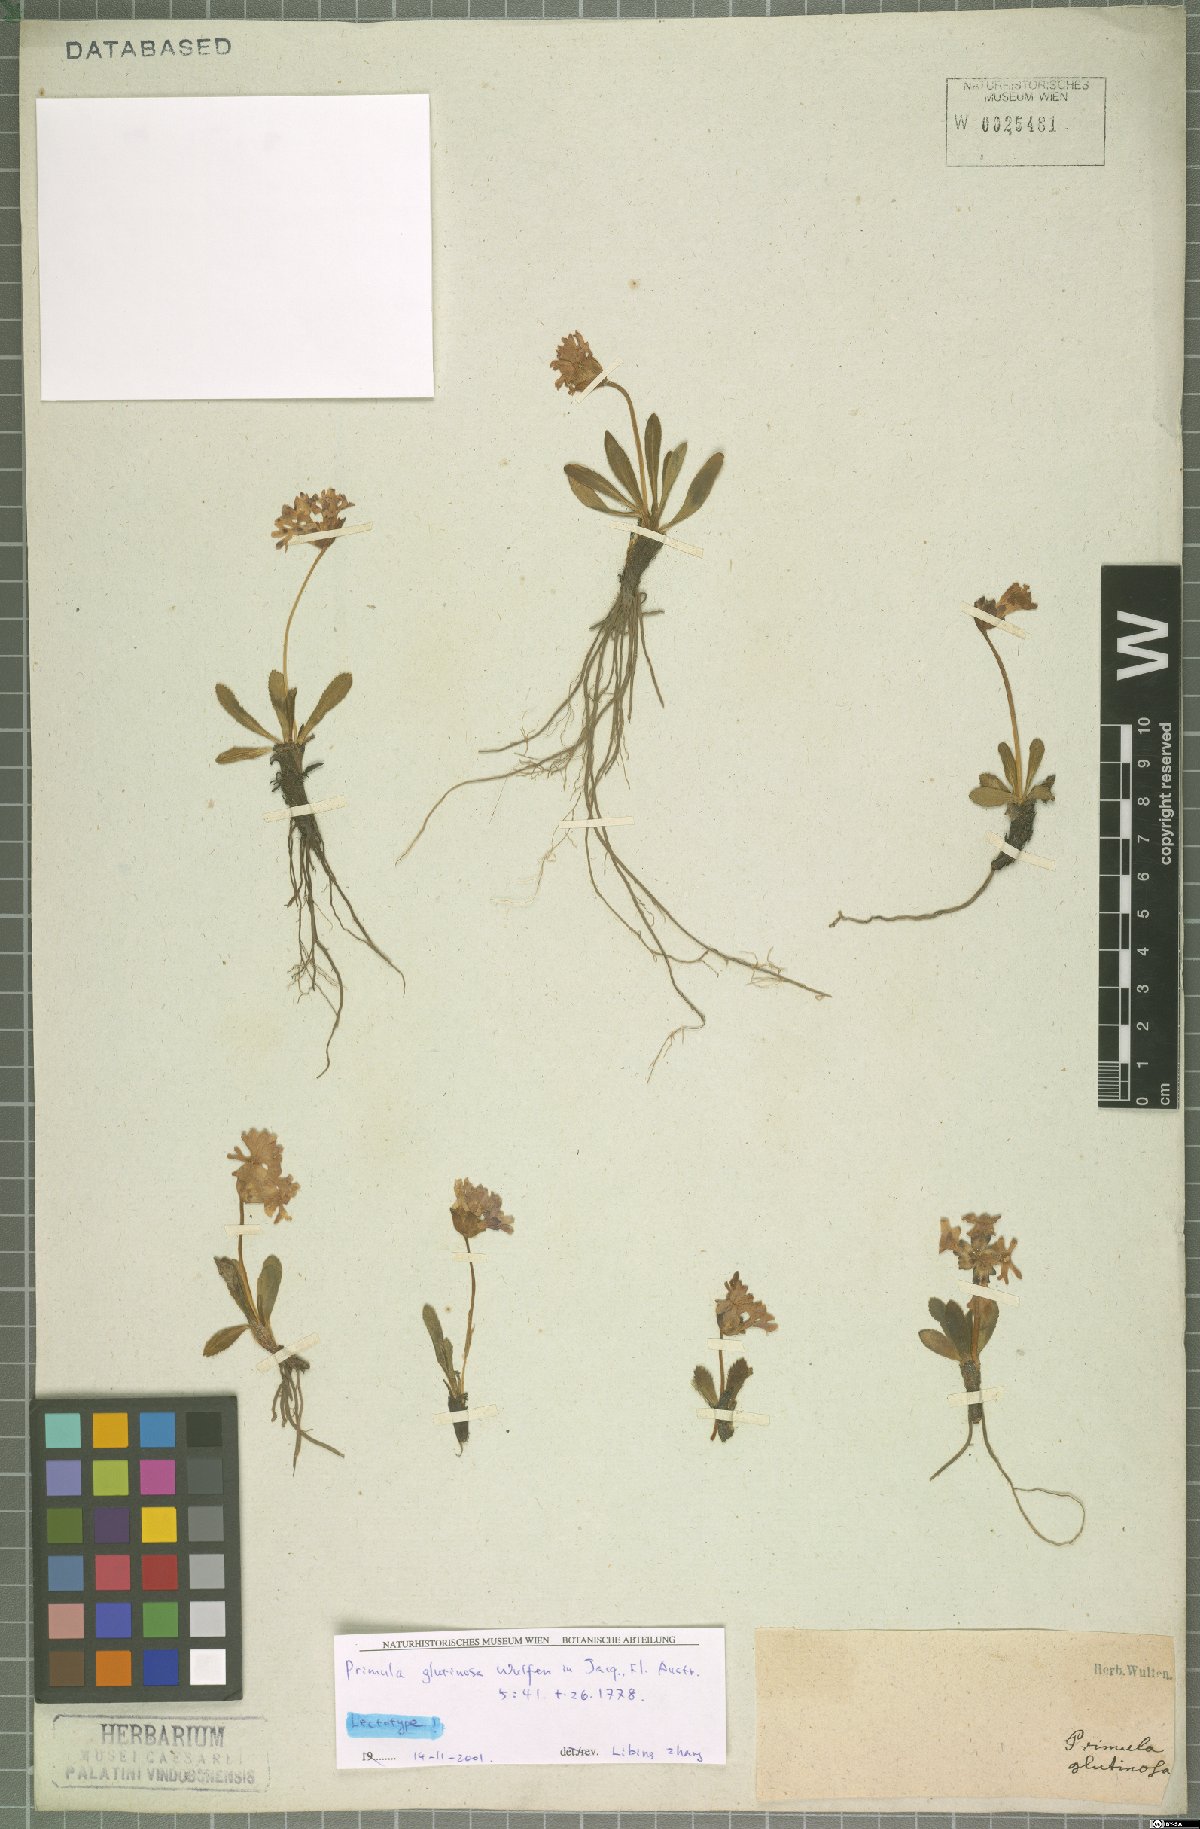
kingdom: Plantae
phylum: Tracheophyta
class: Magnoliopsida
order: Ericales
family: Primulaceae
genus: Primula
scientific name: Primula glutinosa
